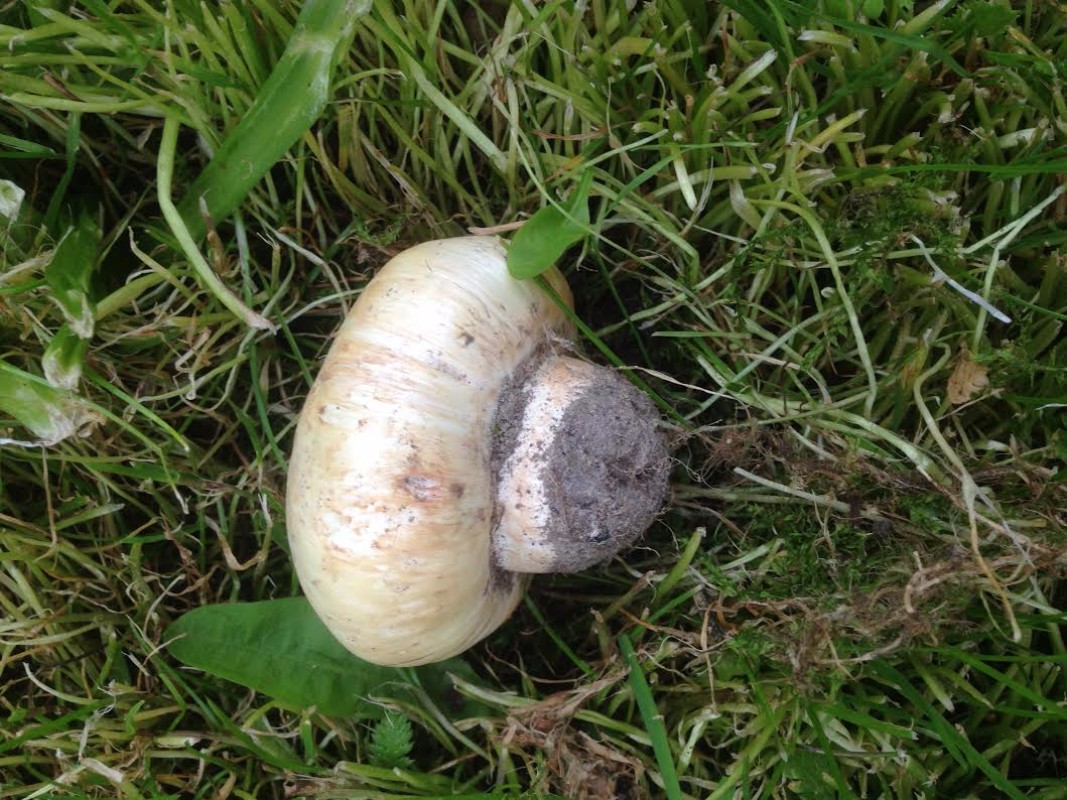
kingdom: Fungi
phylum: Basidiomycota
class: Agaricomycetes
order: Agaricales
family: Agaricaceae
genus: Agaricus
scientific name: Agaricus bitorquis
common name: vej-champignon
